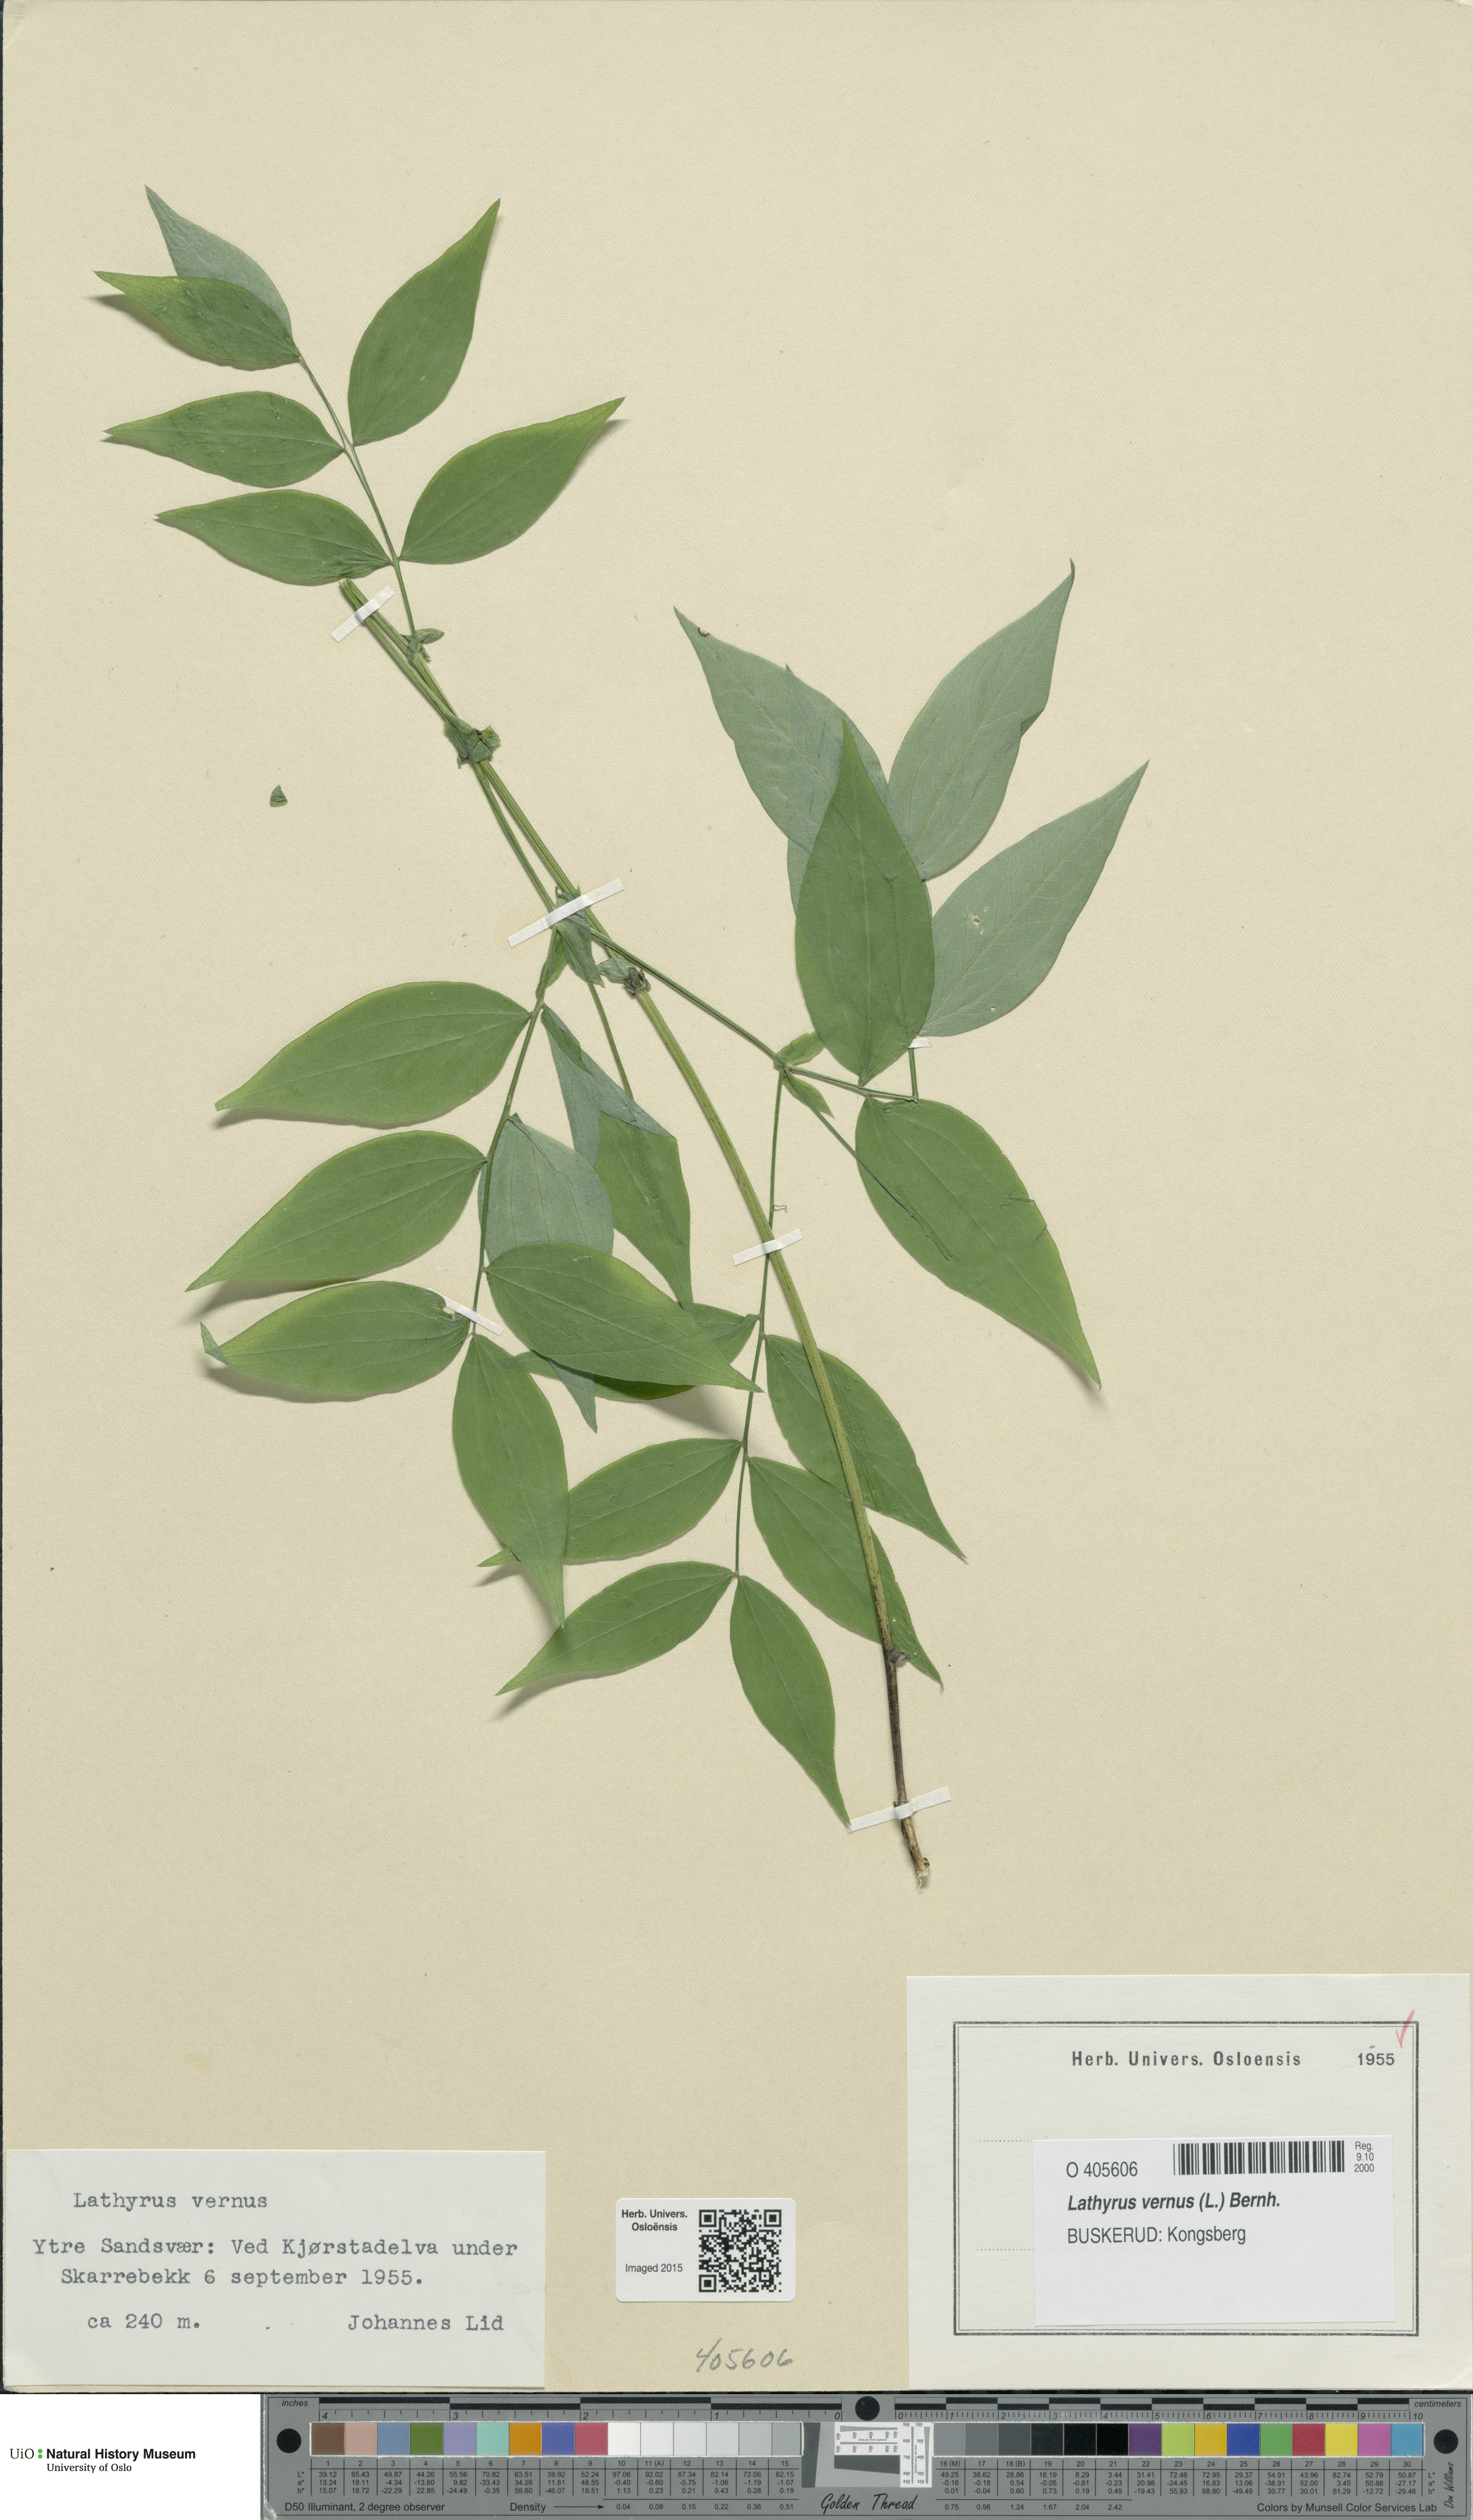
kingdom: Plantae
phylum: Tracheophyta
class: Magnoliopsida
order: Fabales
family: Fabaceae
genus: Lathyrus
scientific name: Lathyrus vernus
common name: Spring pea
